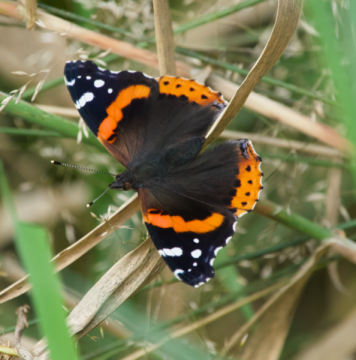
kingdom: Animalia
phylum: Arthropoda
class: Insecta
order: Lepidoptera
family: Nymphalidae
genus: Vanessa
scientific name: Vanessa atalanta
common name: Red Admiral
